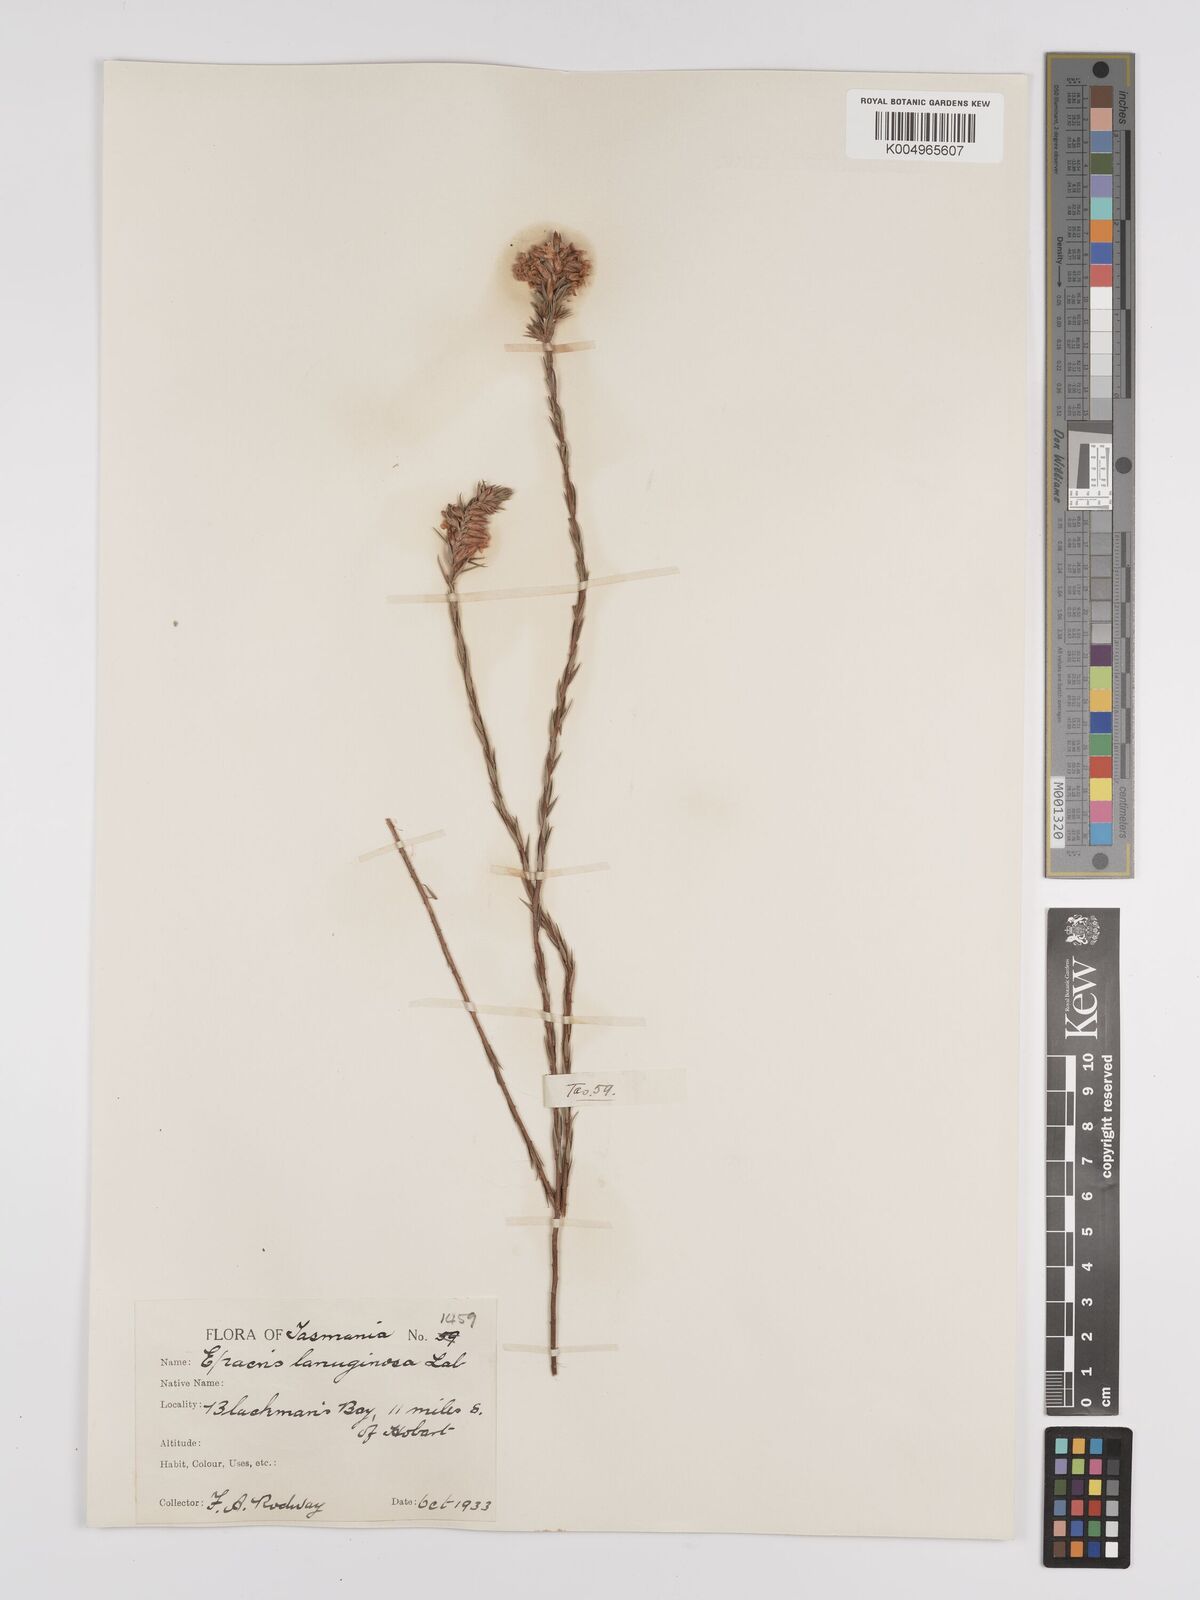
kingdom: Plantae
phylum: Tracheophyta
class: Magnoliopsida
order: Ericales
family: Ericaceae
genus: Epacris
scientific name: Epacris lanuginosa
